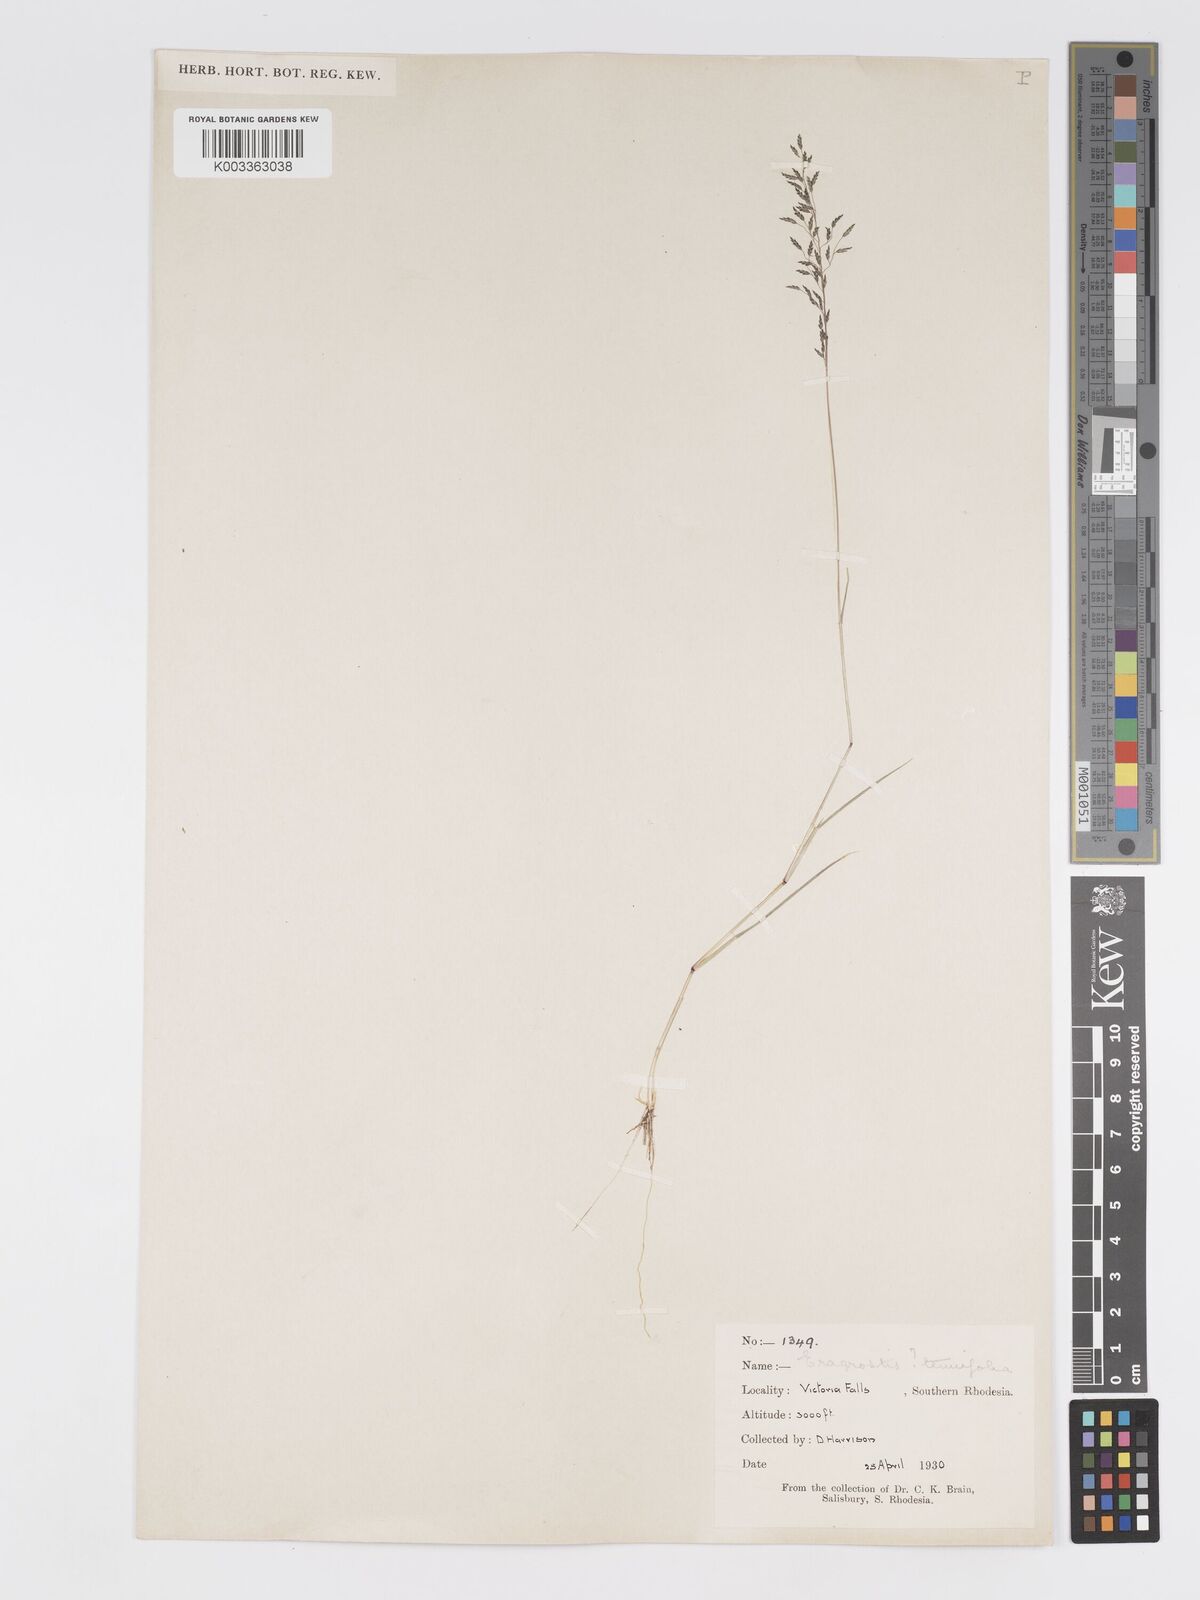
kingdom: Plantae
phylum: Tracheophyta
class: Liliopsida
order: Poales
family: Poaceae
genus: Eragrostis
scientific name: Eragrostis cylindriflora
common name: Cylinderflower lovegrass
